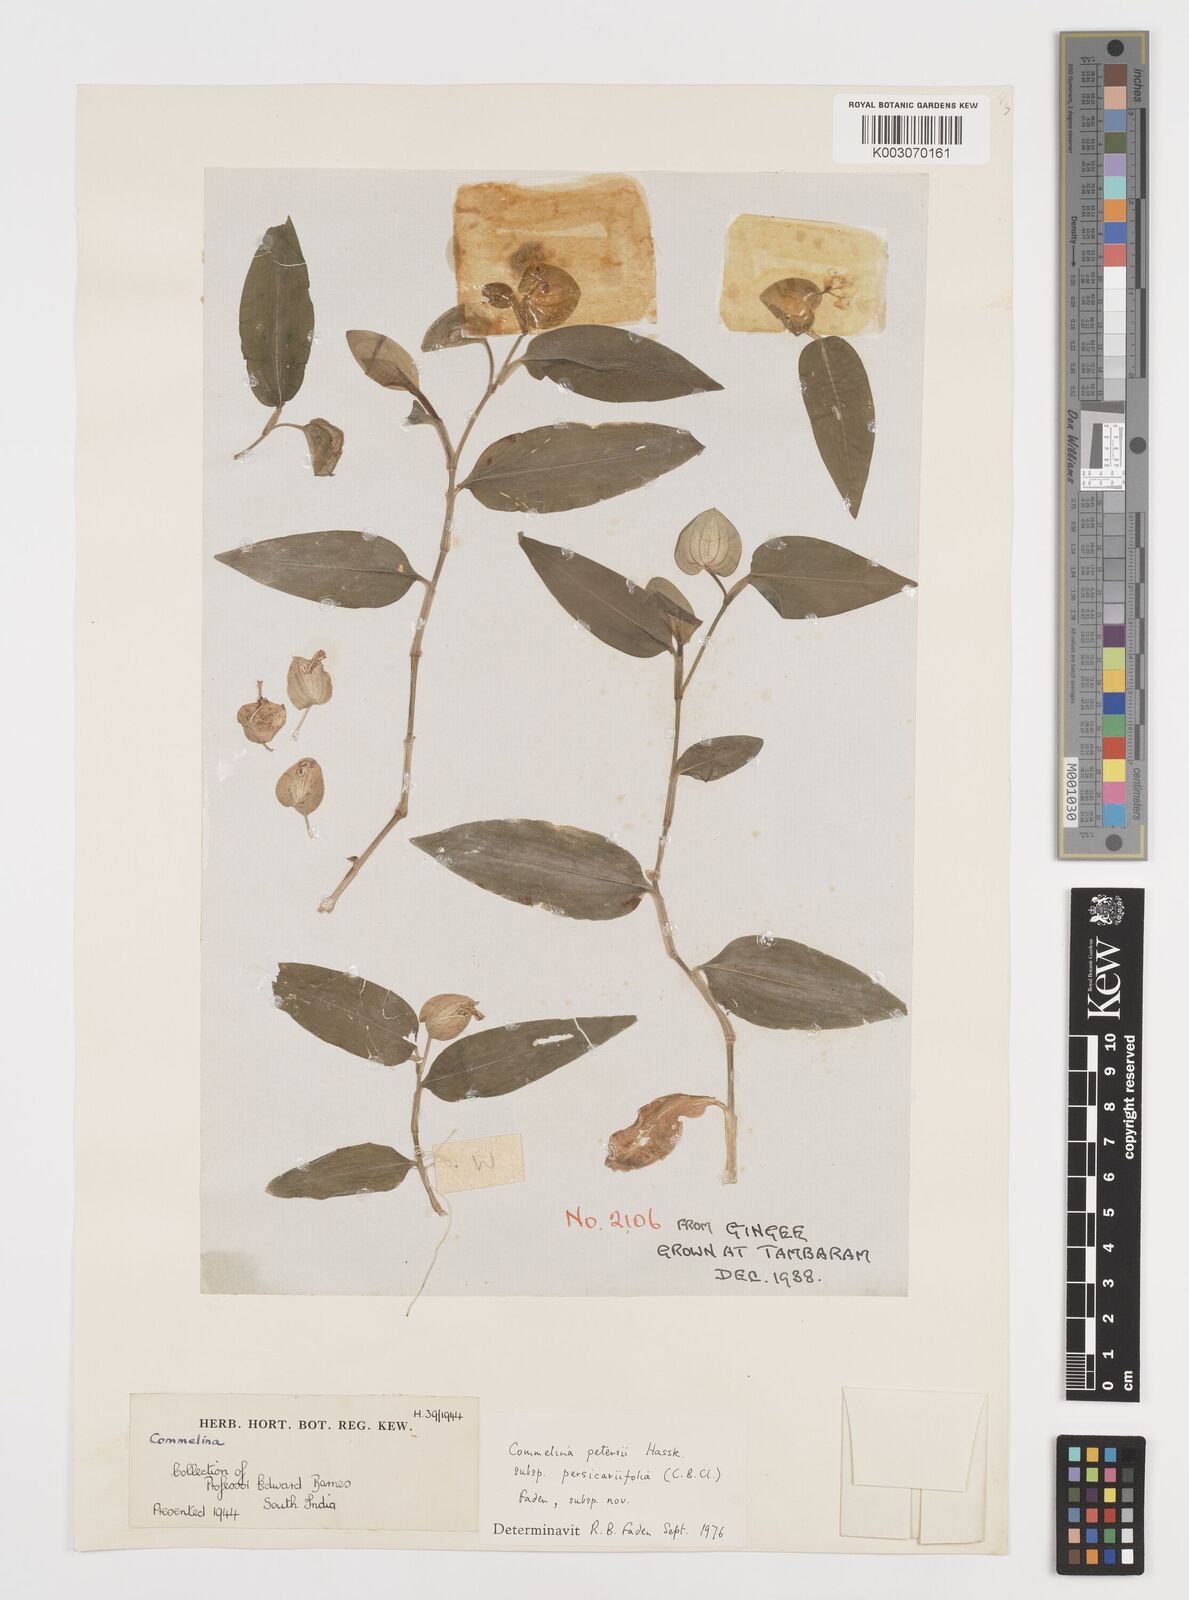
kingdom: Plantae
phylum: Tracheophyta
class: Liliopsida
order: Commelinales
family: Commelinaceae
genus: Commelina
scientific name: Commelina petersii
